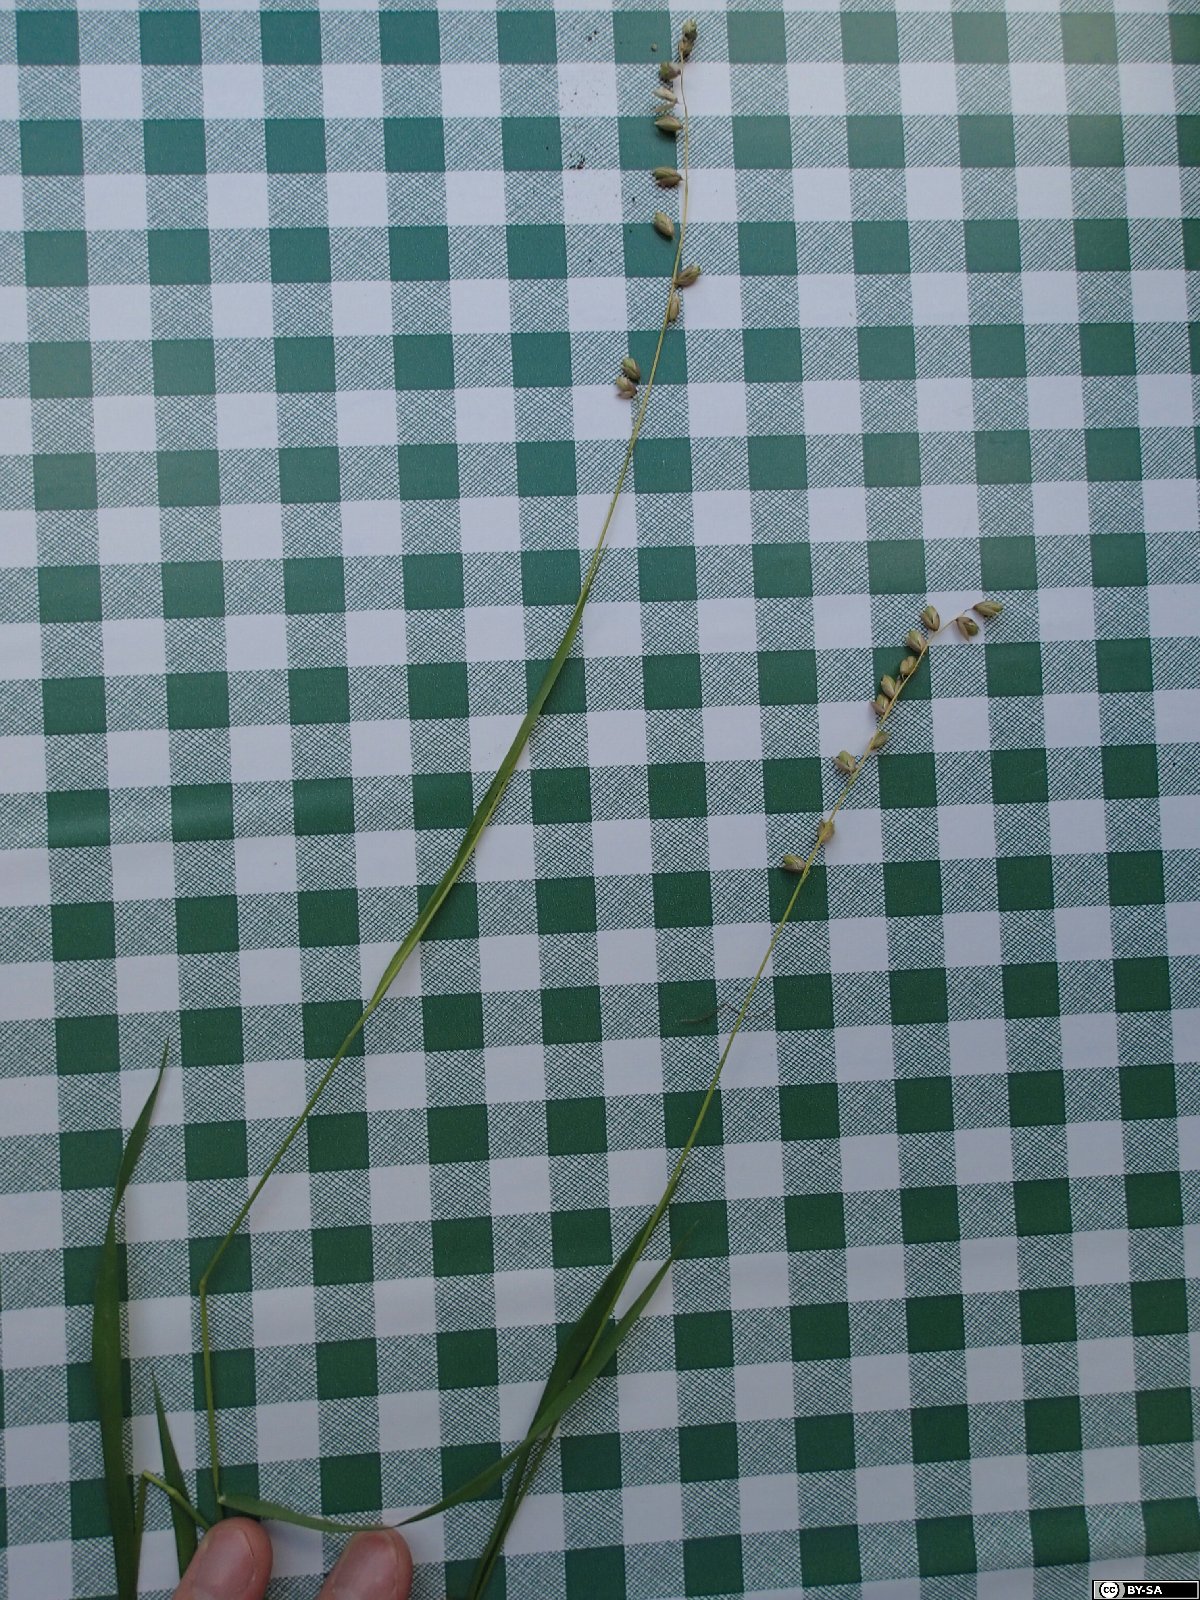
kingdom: Plantae
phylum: Tracheophyta
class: Liliopsida
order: Poales
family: Poaceae
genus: Melica
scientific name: Melica picta
